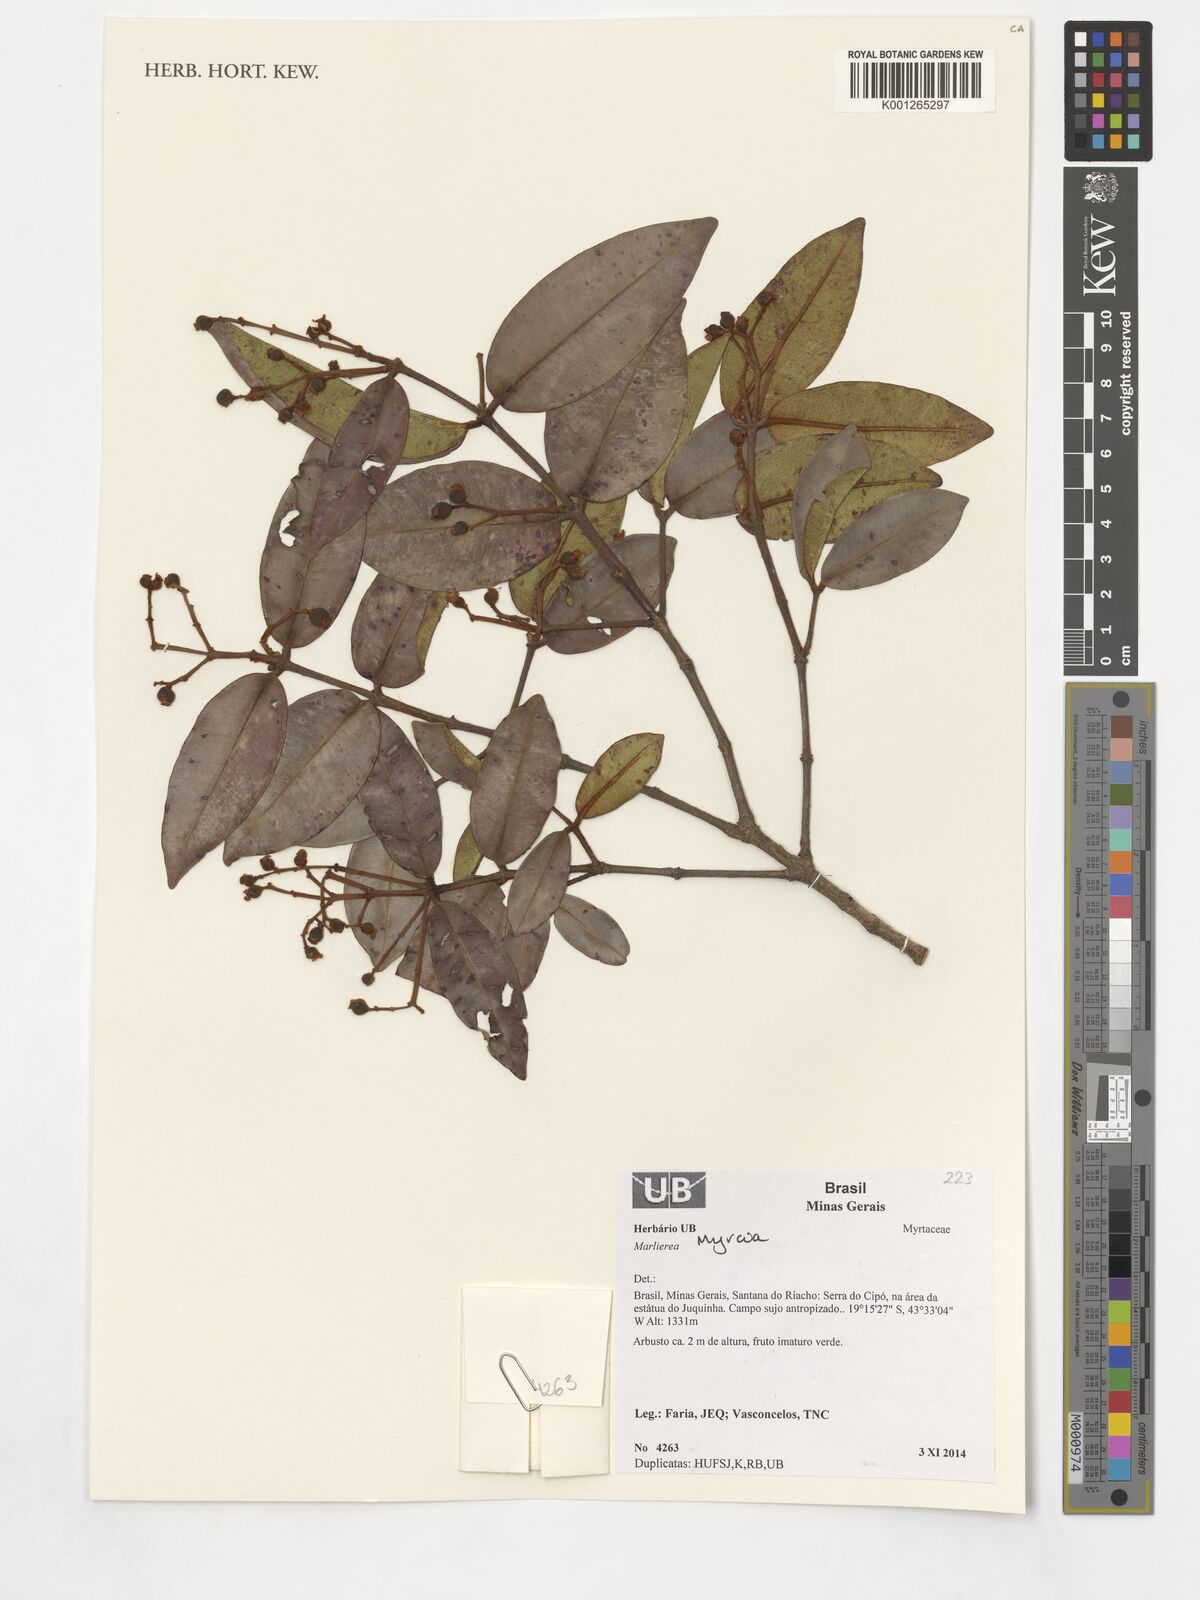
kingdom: Plantae
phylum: Tracheophyta
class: Magnoliopsida
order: Myrtales
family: Myrtaceae
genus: Myrcia
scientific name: Myrcia
